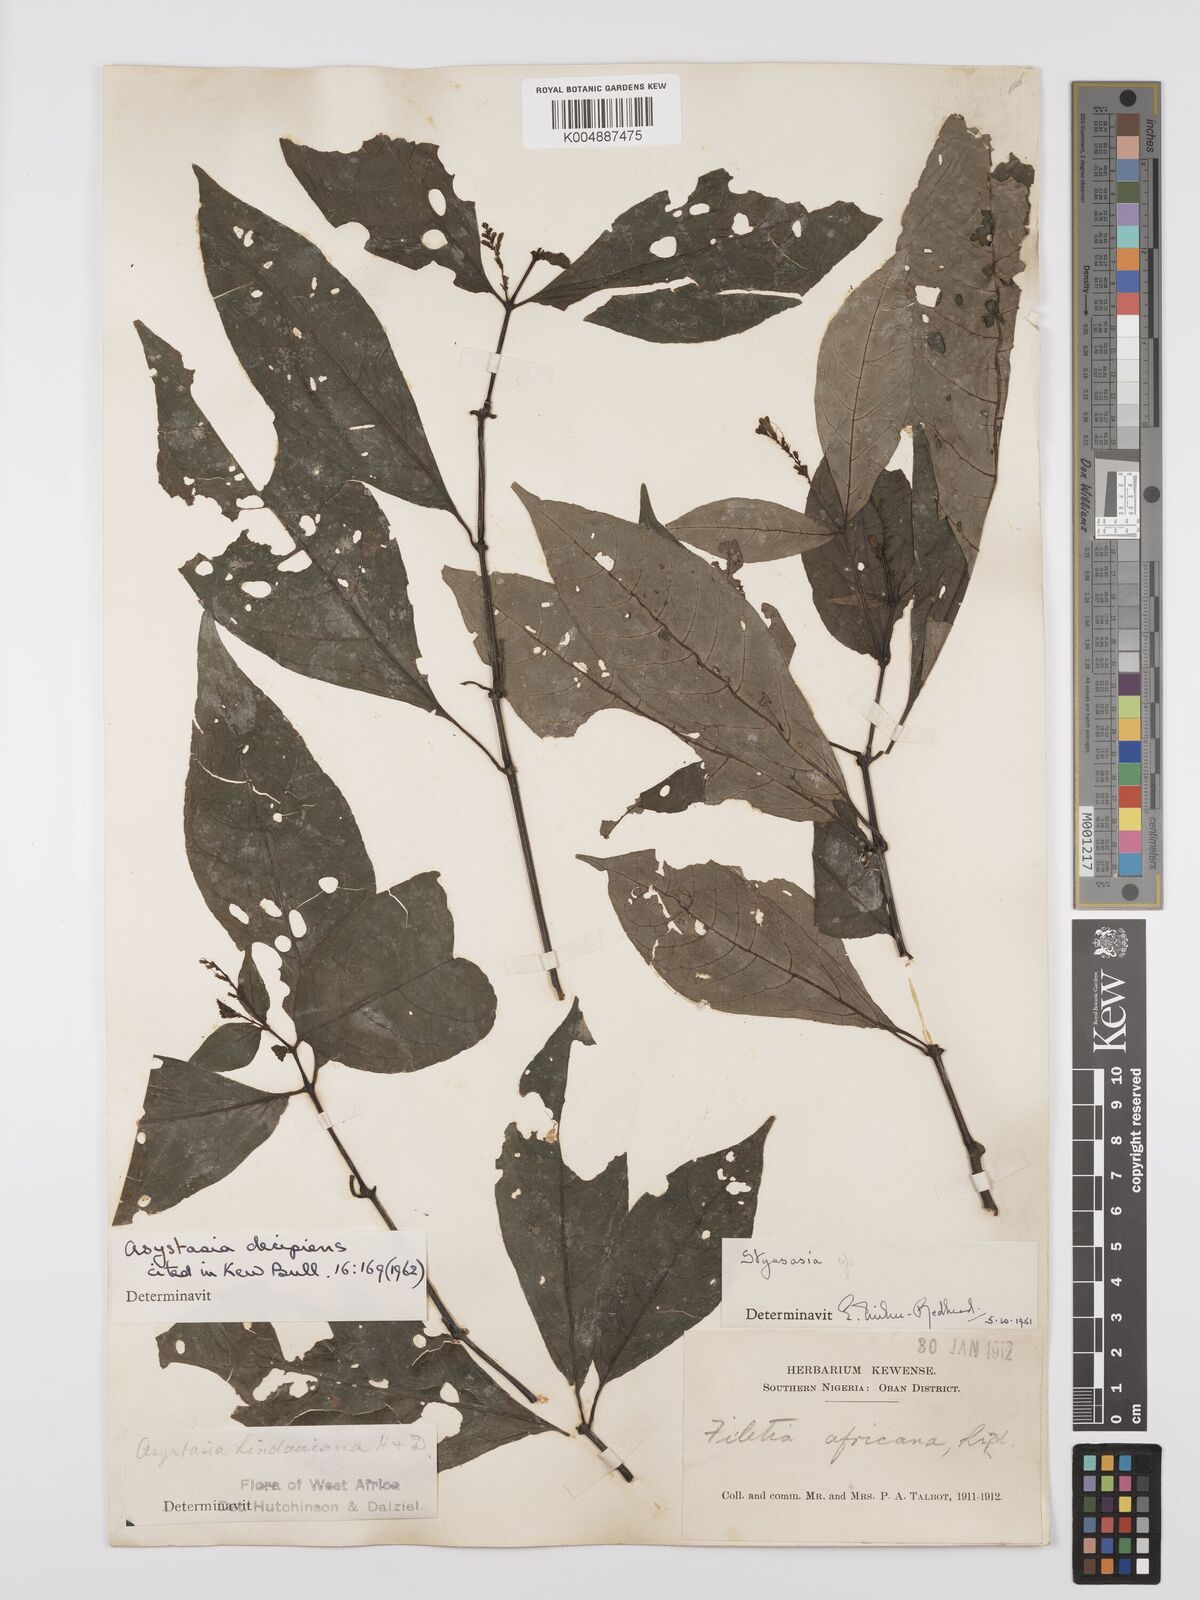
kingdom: Plantae
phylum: Tracheophyta
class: Magnoliopsida
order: Lamiales
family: Acanthaceae
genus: Asystasia
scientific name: Asystasia decipiens
